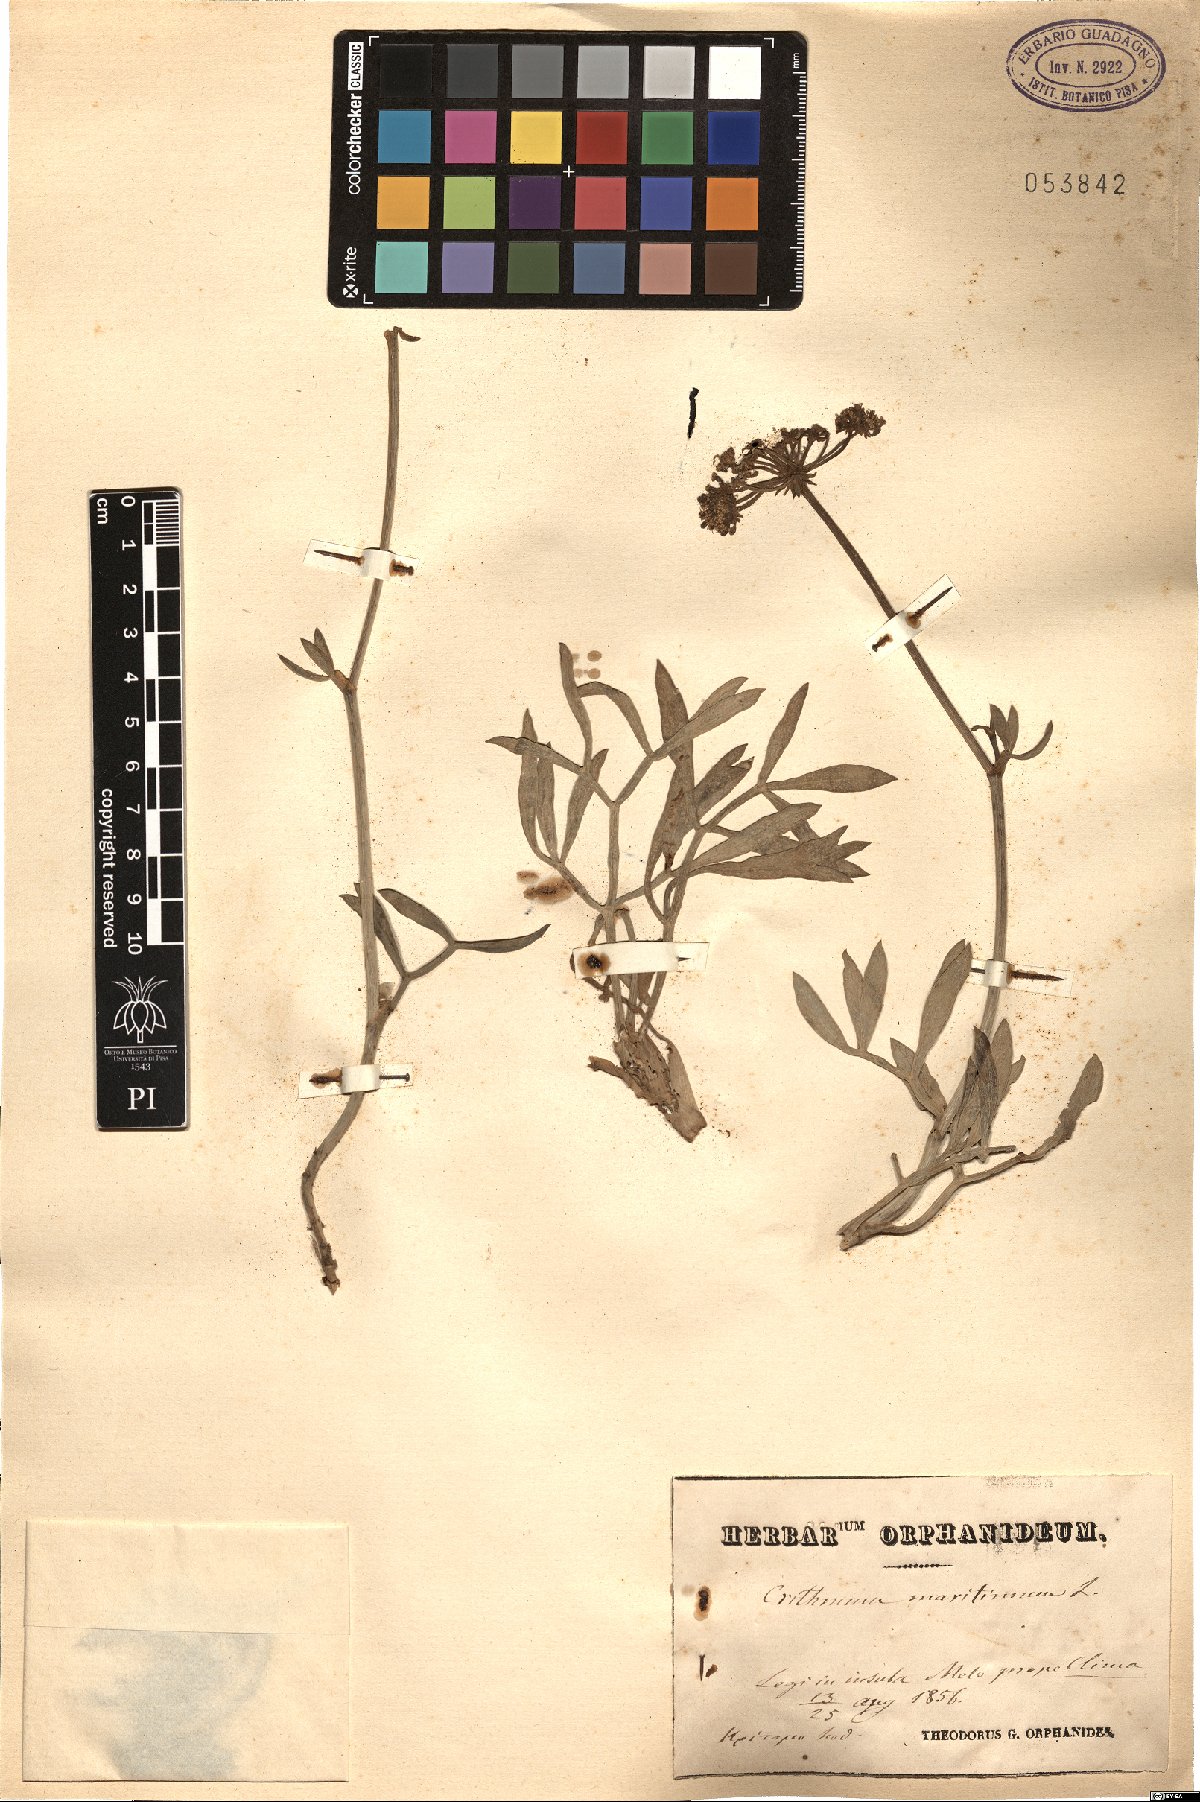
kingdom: Plantae
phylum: Tracheophyta
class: Magnoliopsida
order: Apiales
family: Apiaceae
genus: Crithmum
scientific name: Crithmum maritimum
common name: Rock samphire
